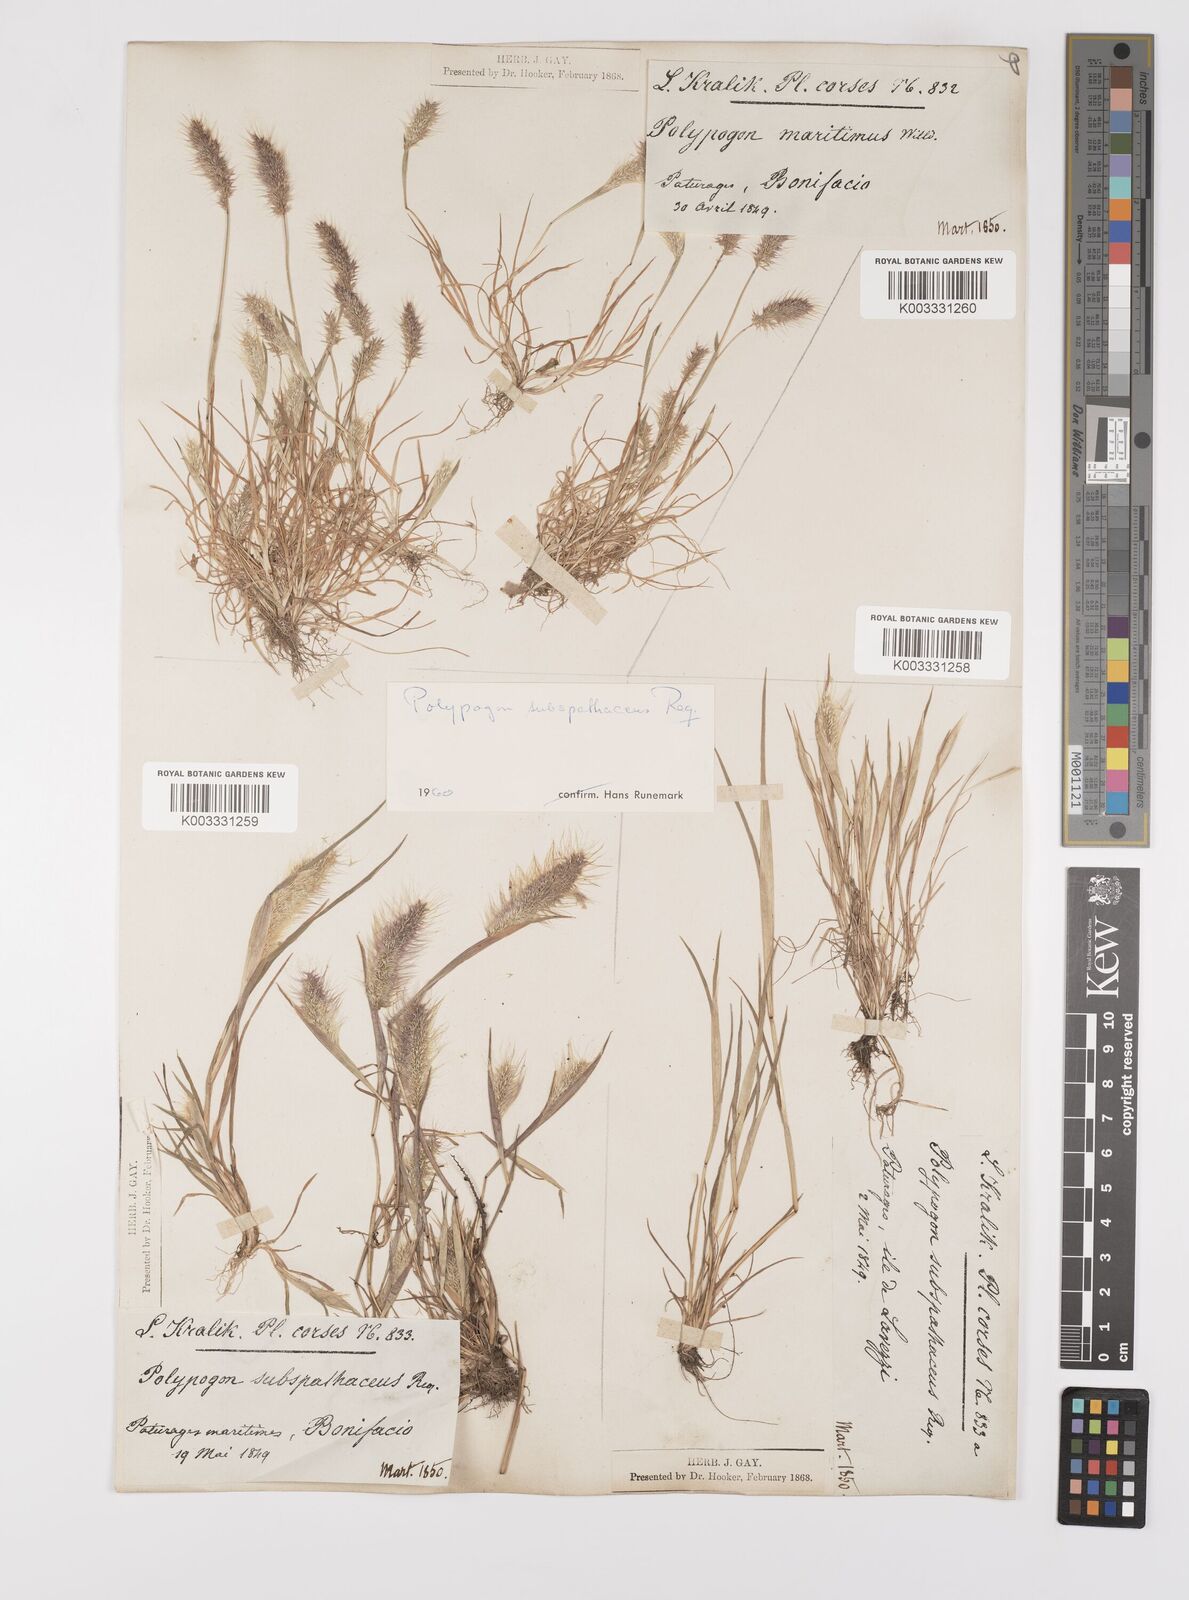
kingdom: Plantae
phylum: Tracheophyta
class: Liliopsida
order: Poales
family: Poaceae
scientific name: Poaceae
